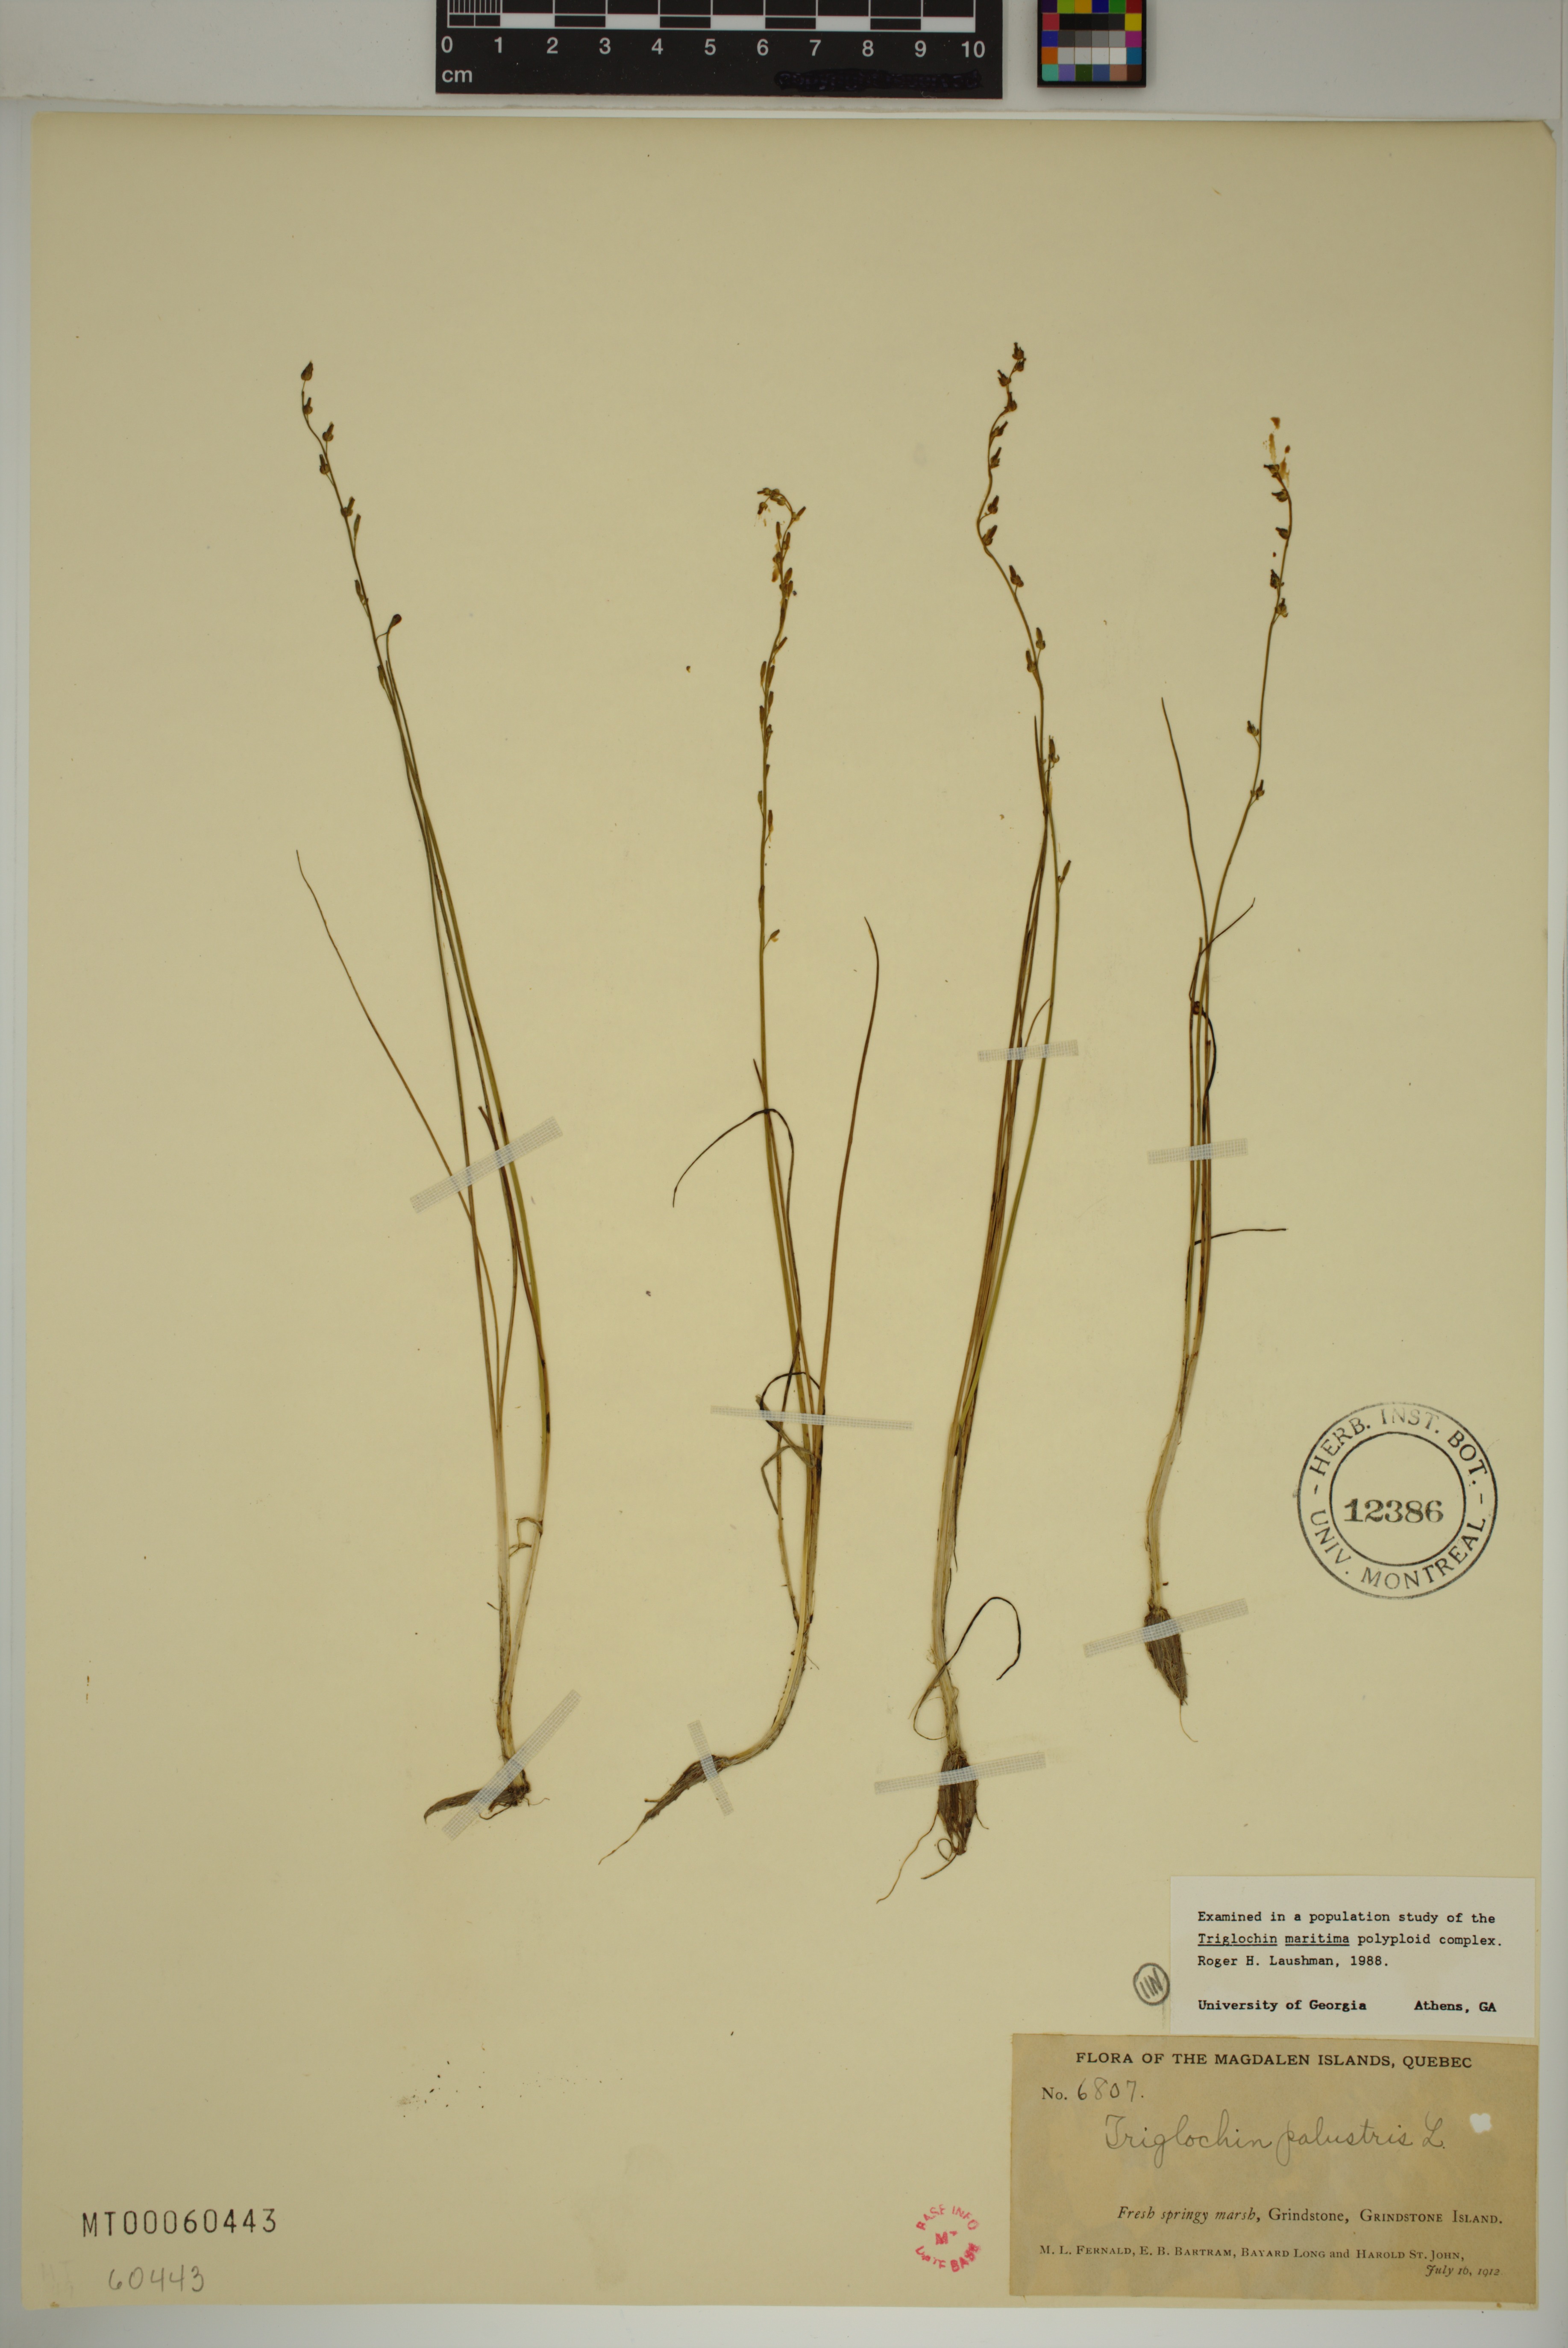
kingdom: Plantae
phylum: Tracheophyta
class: Liliopsida
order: Alismatales
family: Juncaginaceae
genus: Triglochin
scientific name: Triglochin palustris
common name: Marsh arrowgrass
